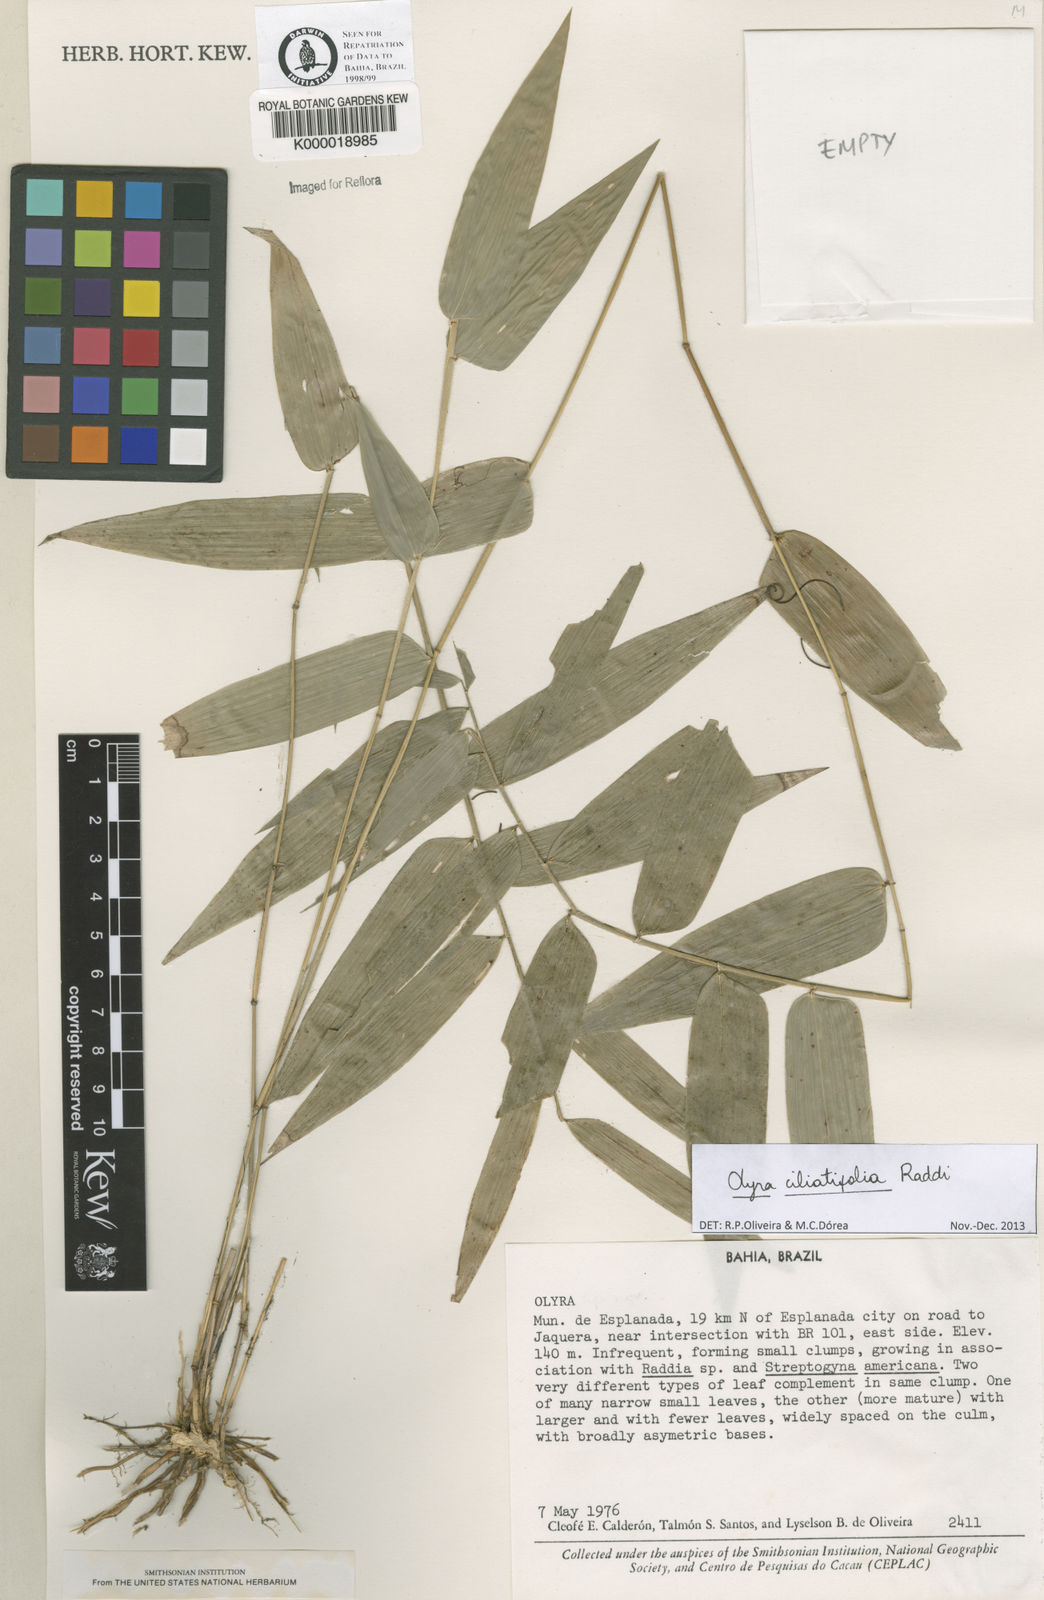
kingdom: Plantae
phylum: Tracheophyta
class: Liliopsida
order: Poales
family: Poaceae
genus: Olyra
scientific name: Olyra
